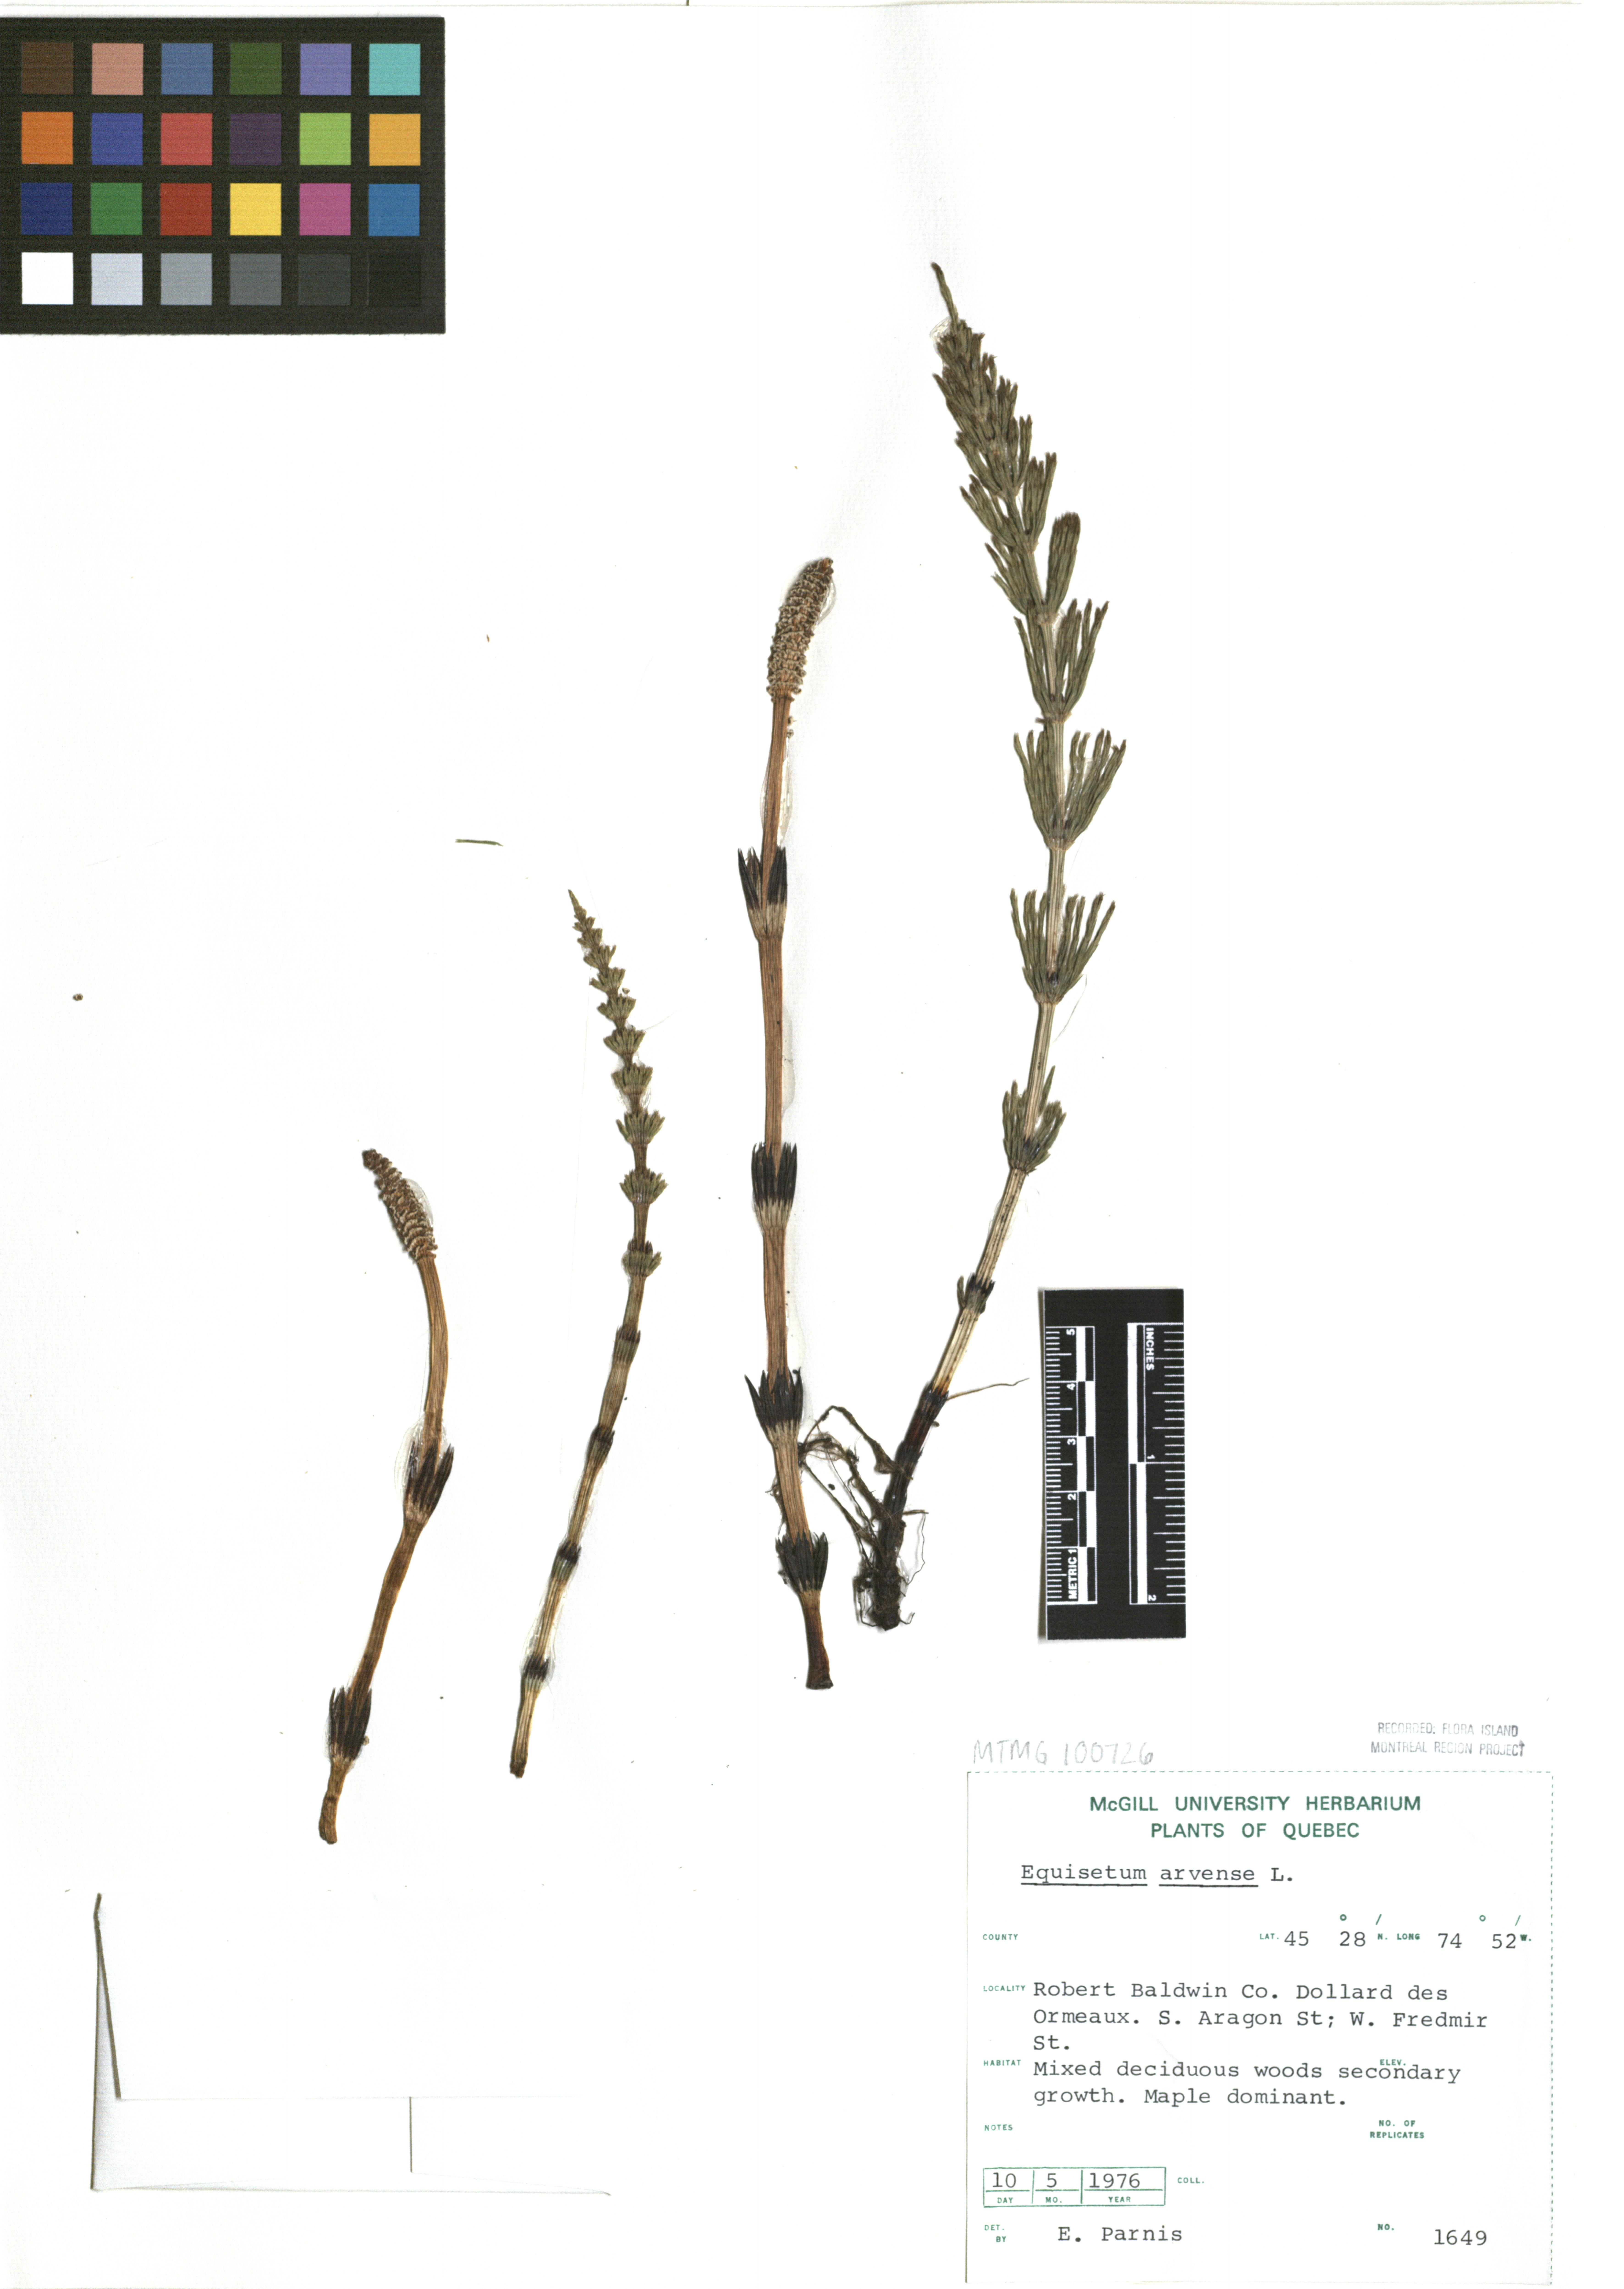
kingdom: Plantae
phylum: Tracheophyta
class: Polypodiopsida
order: Equisetales
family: Equisetaceae
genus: Equisetum
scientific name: Equisetum arvense
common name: Field horsetail
